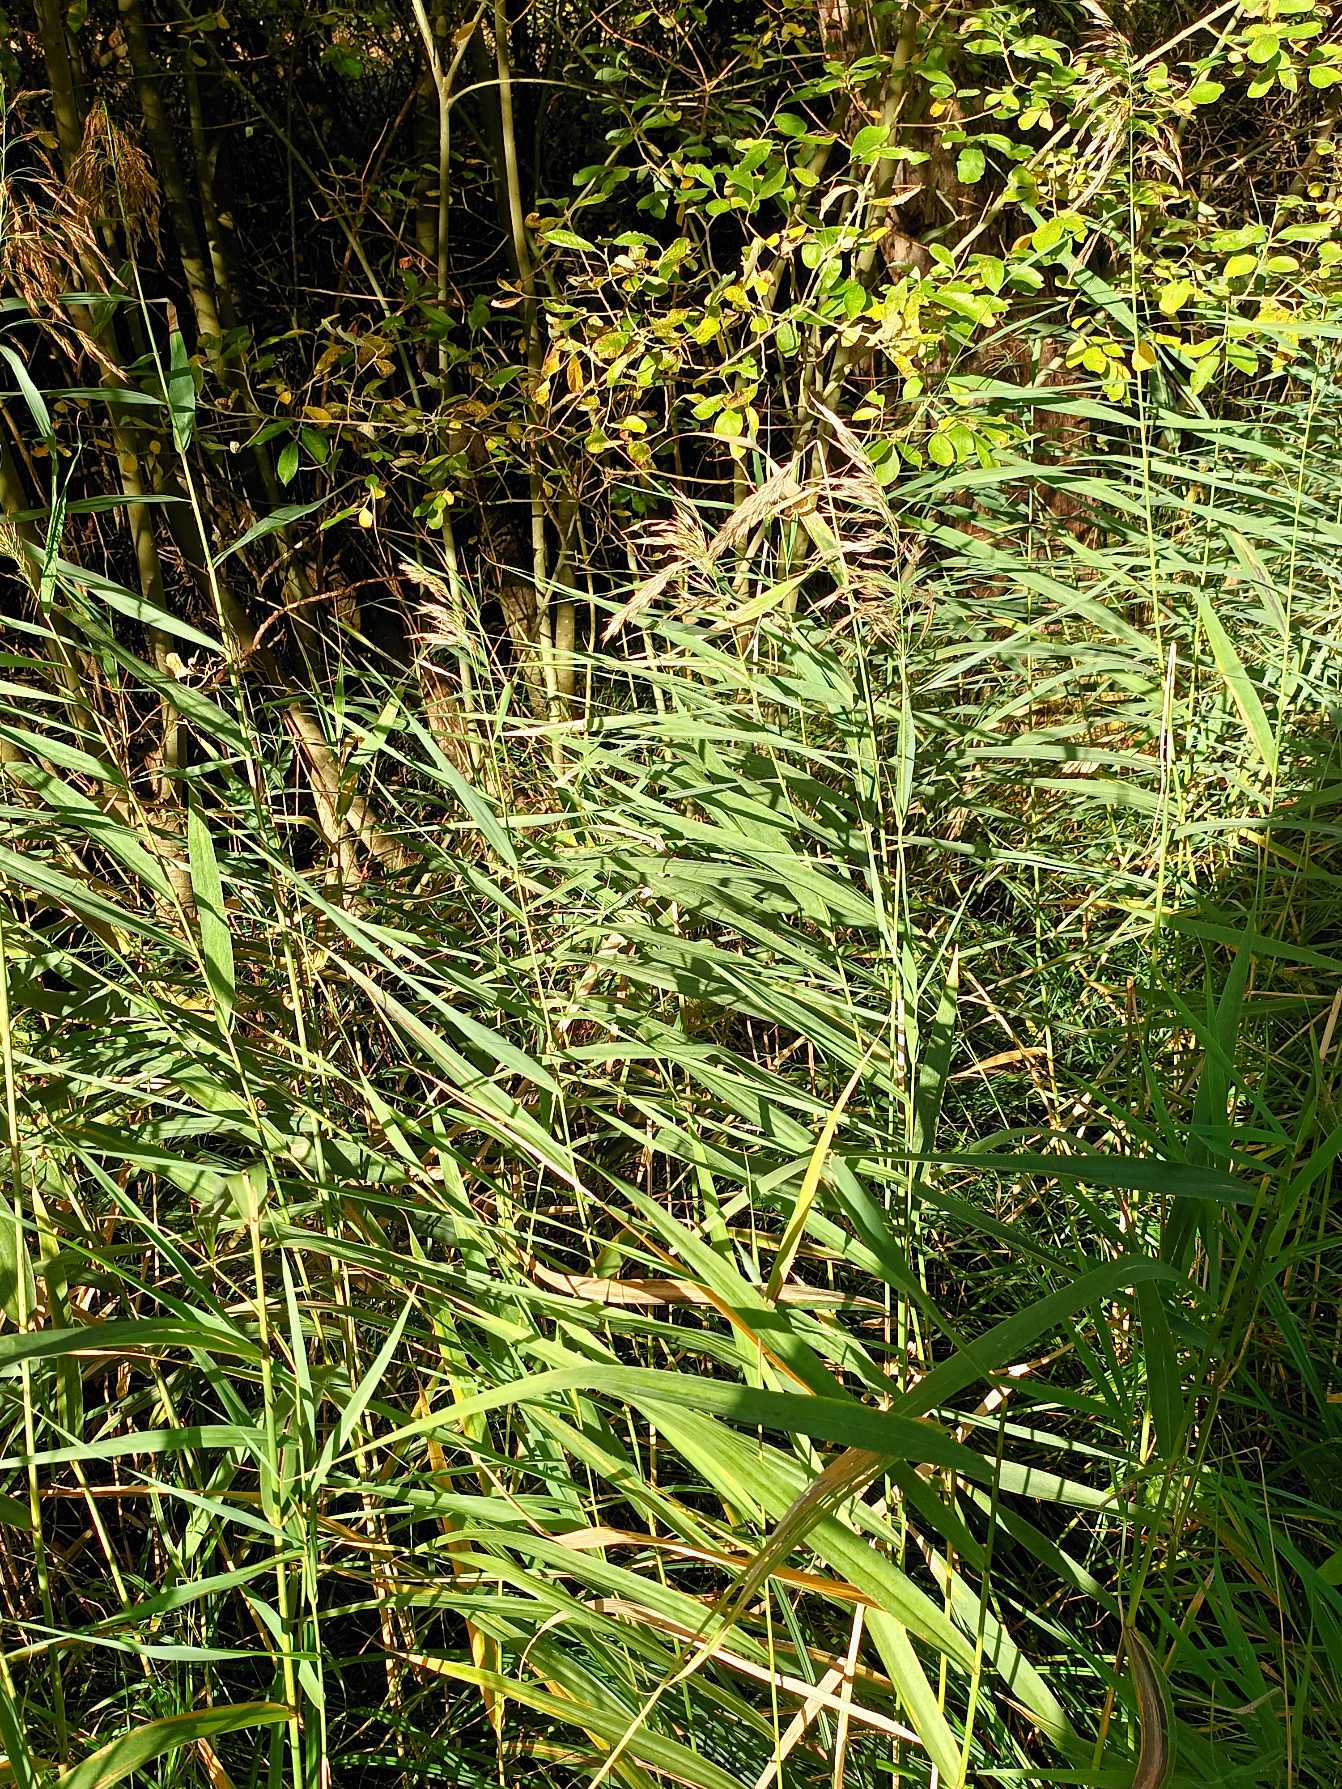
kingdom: Plantae
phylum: Tracheophyta
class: Liliopsida
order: Poales
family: Poaceae
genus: Phragmites
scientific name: Phragmites australis
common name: Tagrør
